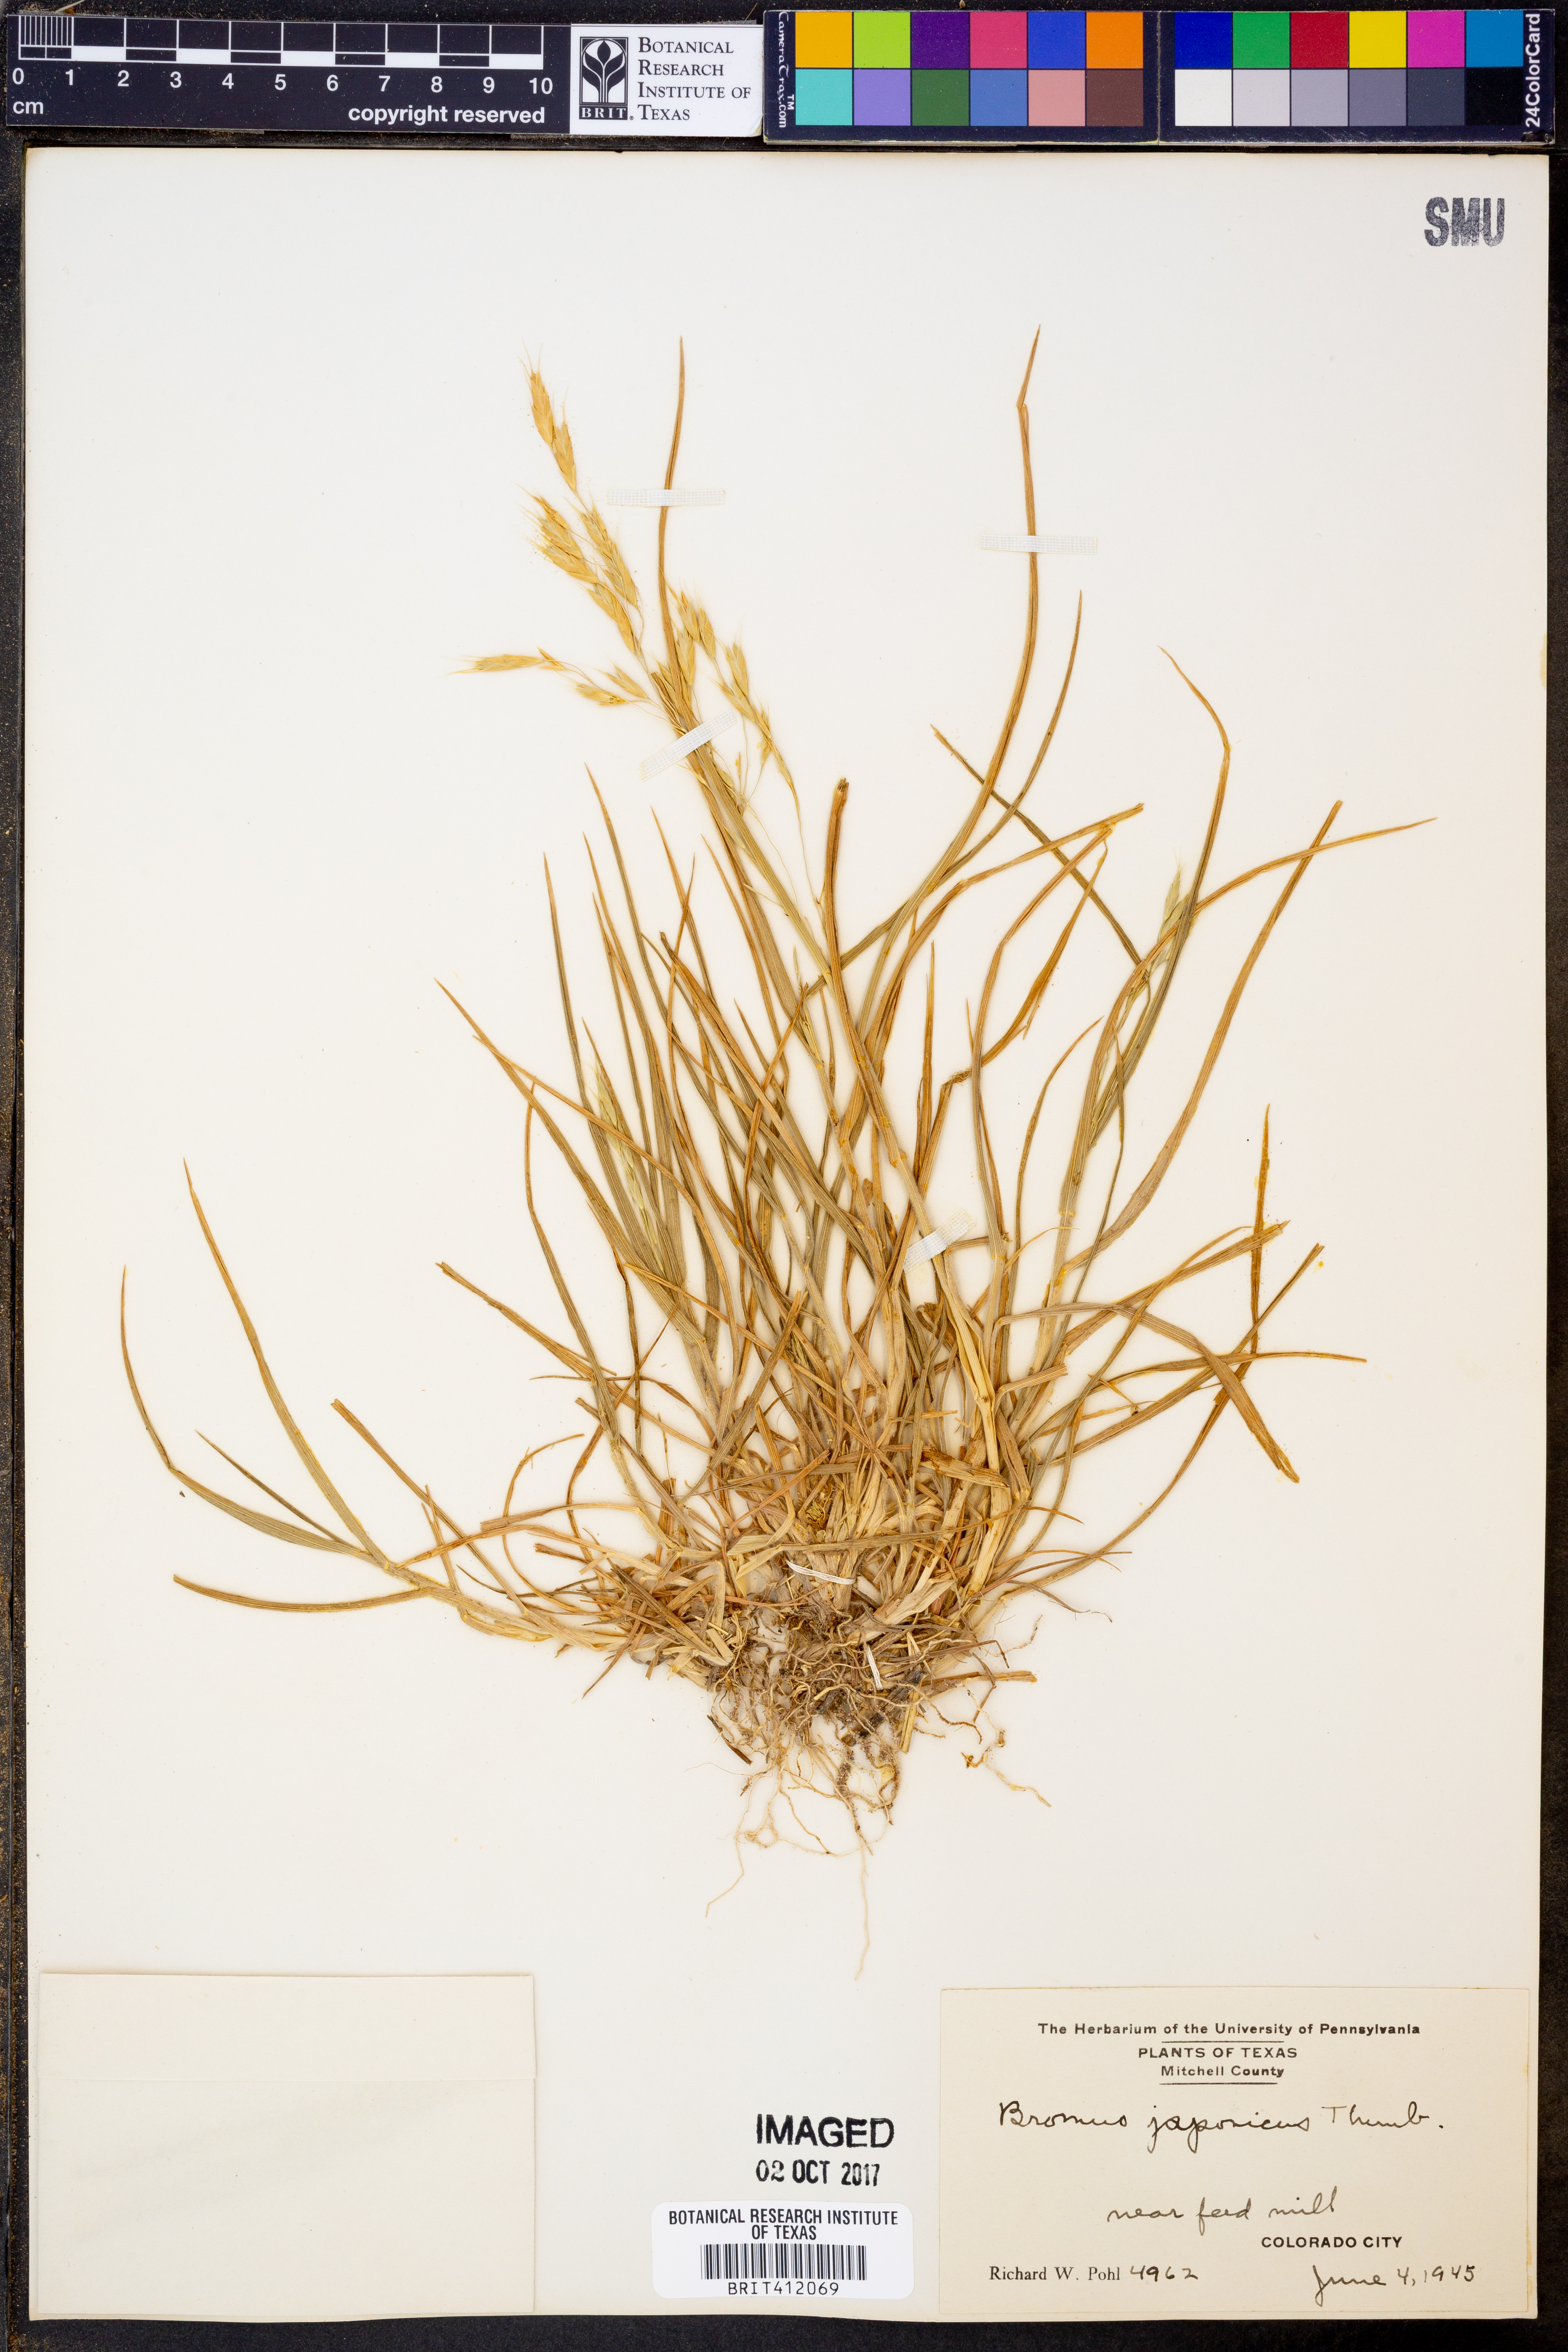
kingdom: Plantae
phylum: Tracheophyta
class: Liliopsida
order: Poales
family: Poaceae
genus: Bromus
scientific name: Bromus japonicus
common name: Japanese brome
